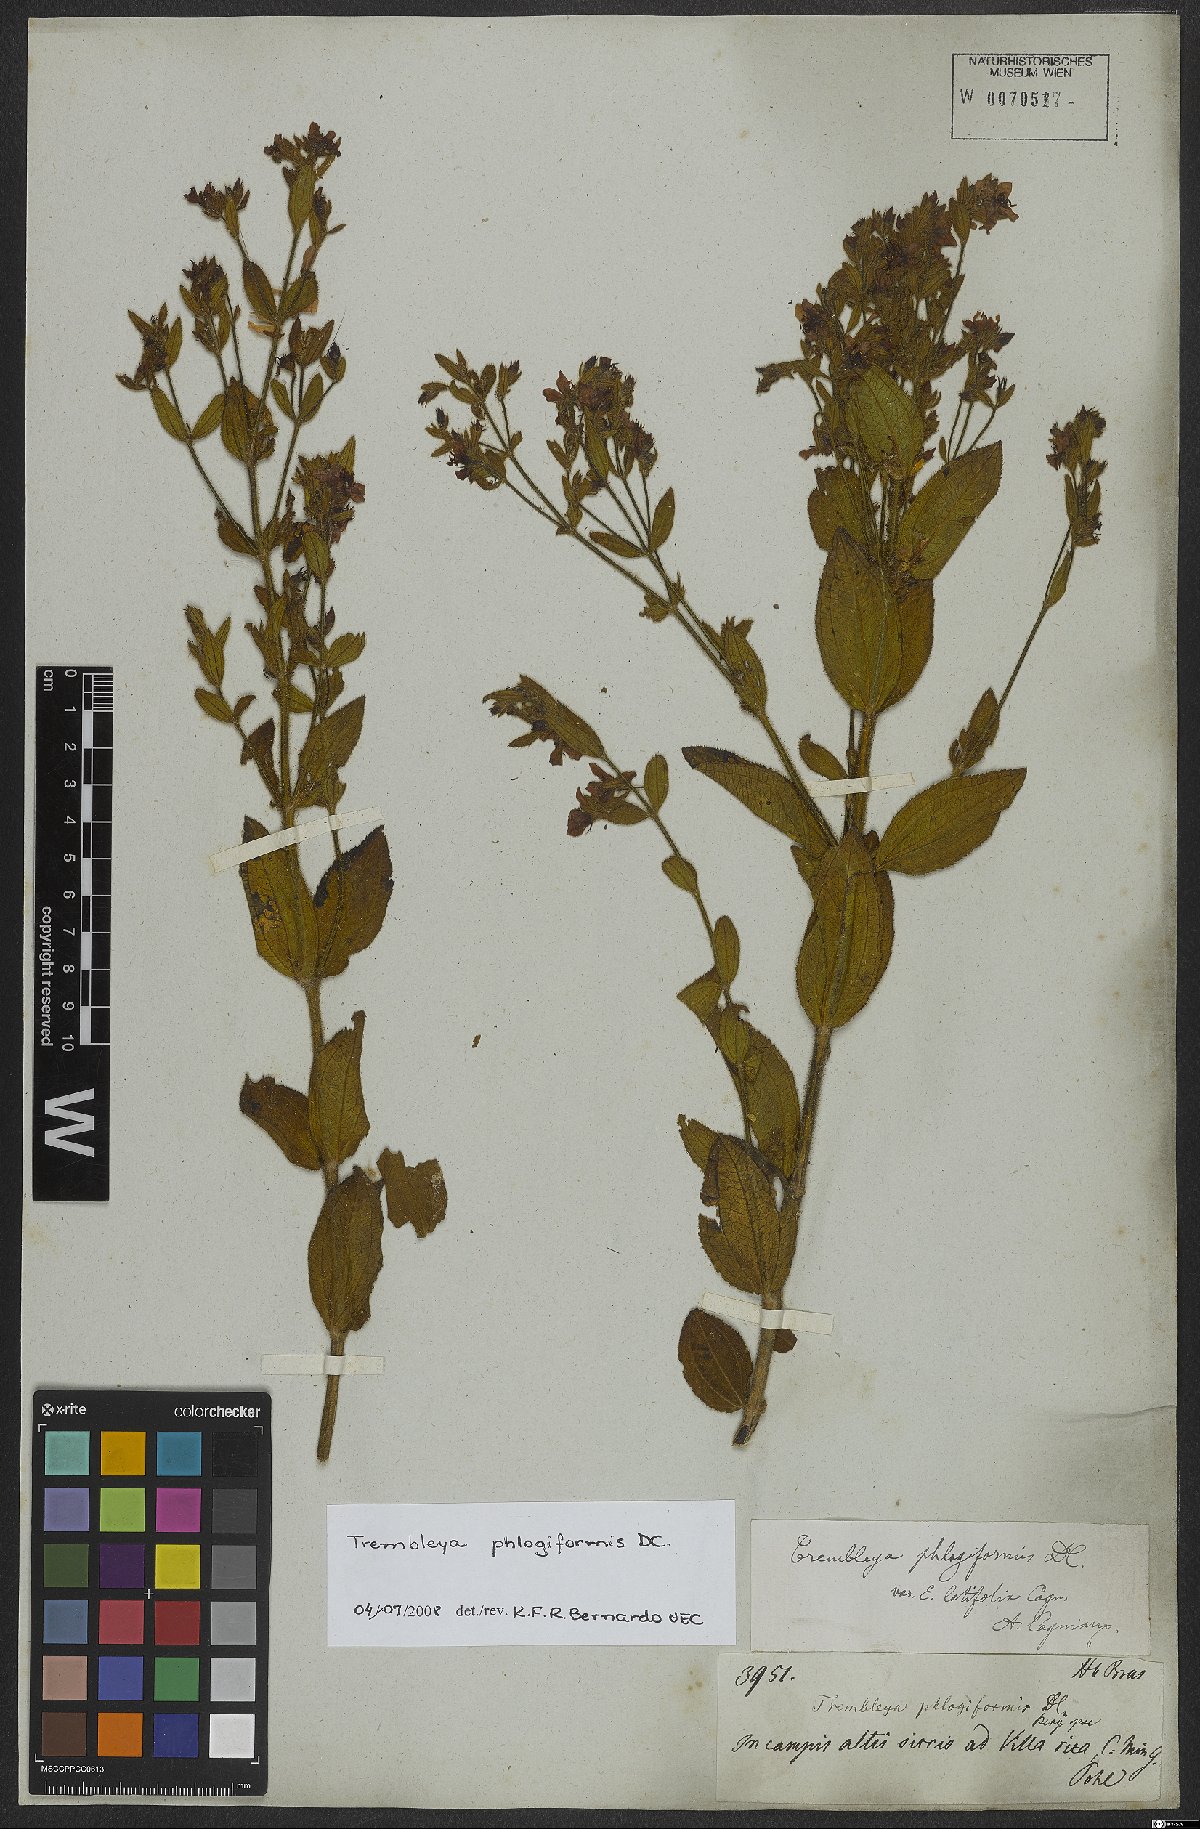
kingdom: Plantae
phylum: Tracheophyta
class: Magnoliopsida
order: Myrtales
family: Melastomataceae
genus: Microlicia
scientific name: Microlicia phlogiformis
